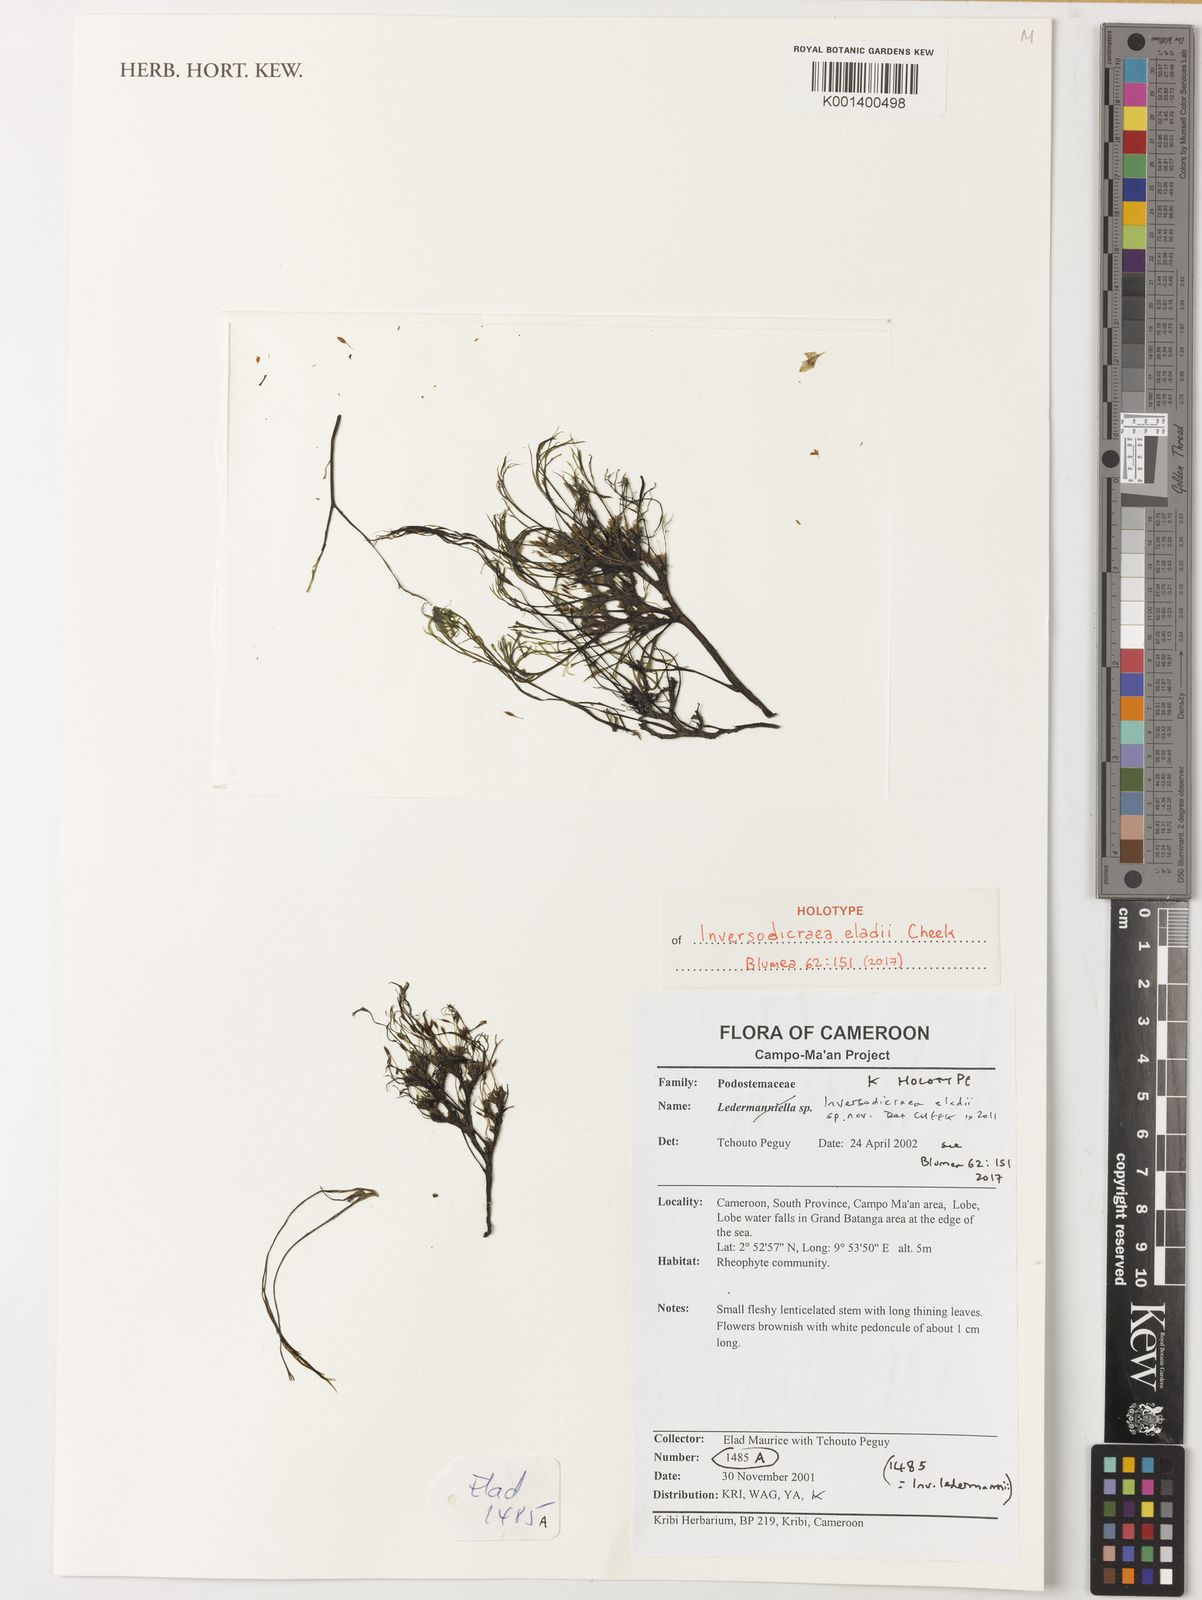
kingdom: Plantae
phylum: Tracheophyta
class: Magnoliopsida
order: Malpighiales
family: Podostemaceae
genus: Inversodicraea
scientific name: Inversodicraea eladii
